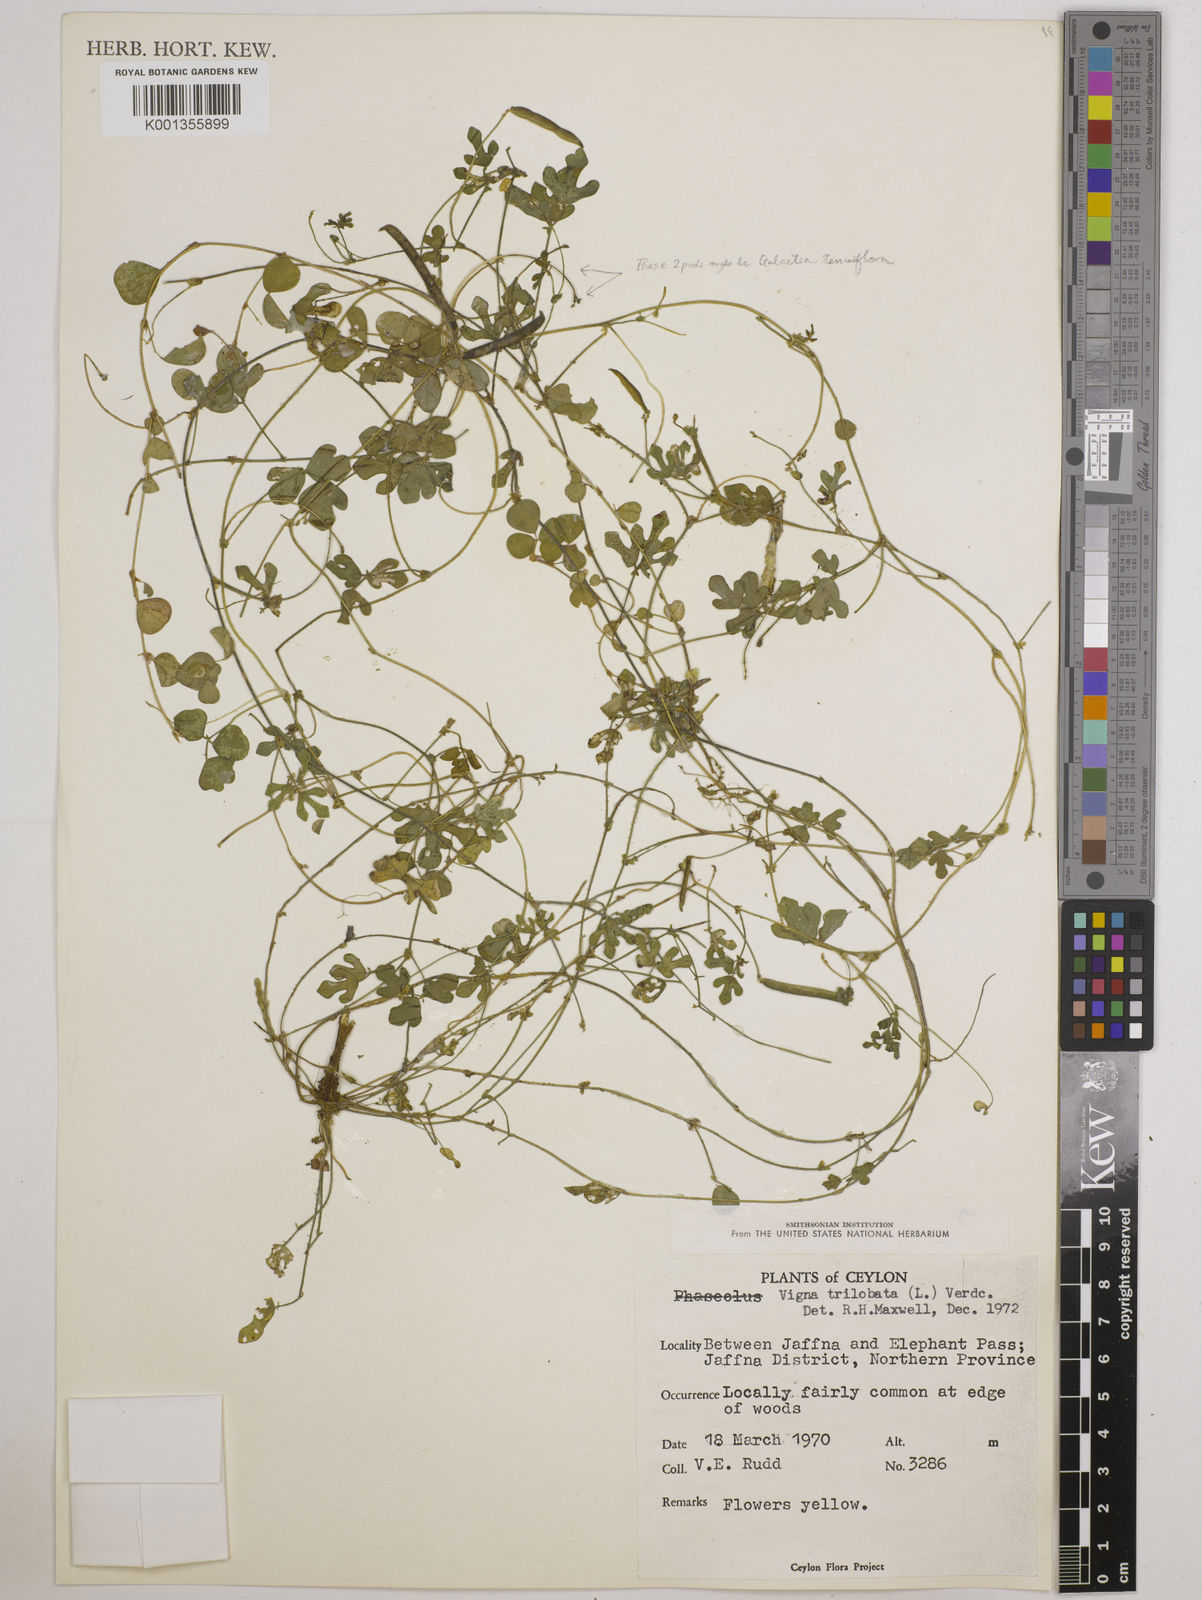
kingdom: Plantae
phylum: Tracheophyta
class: Magnoliopsida
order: Fabales
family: Fabaceae
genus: Vigna
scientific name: Vigna trilobata
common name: Jungli-bean
